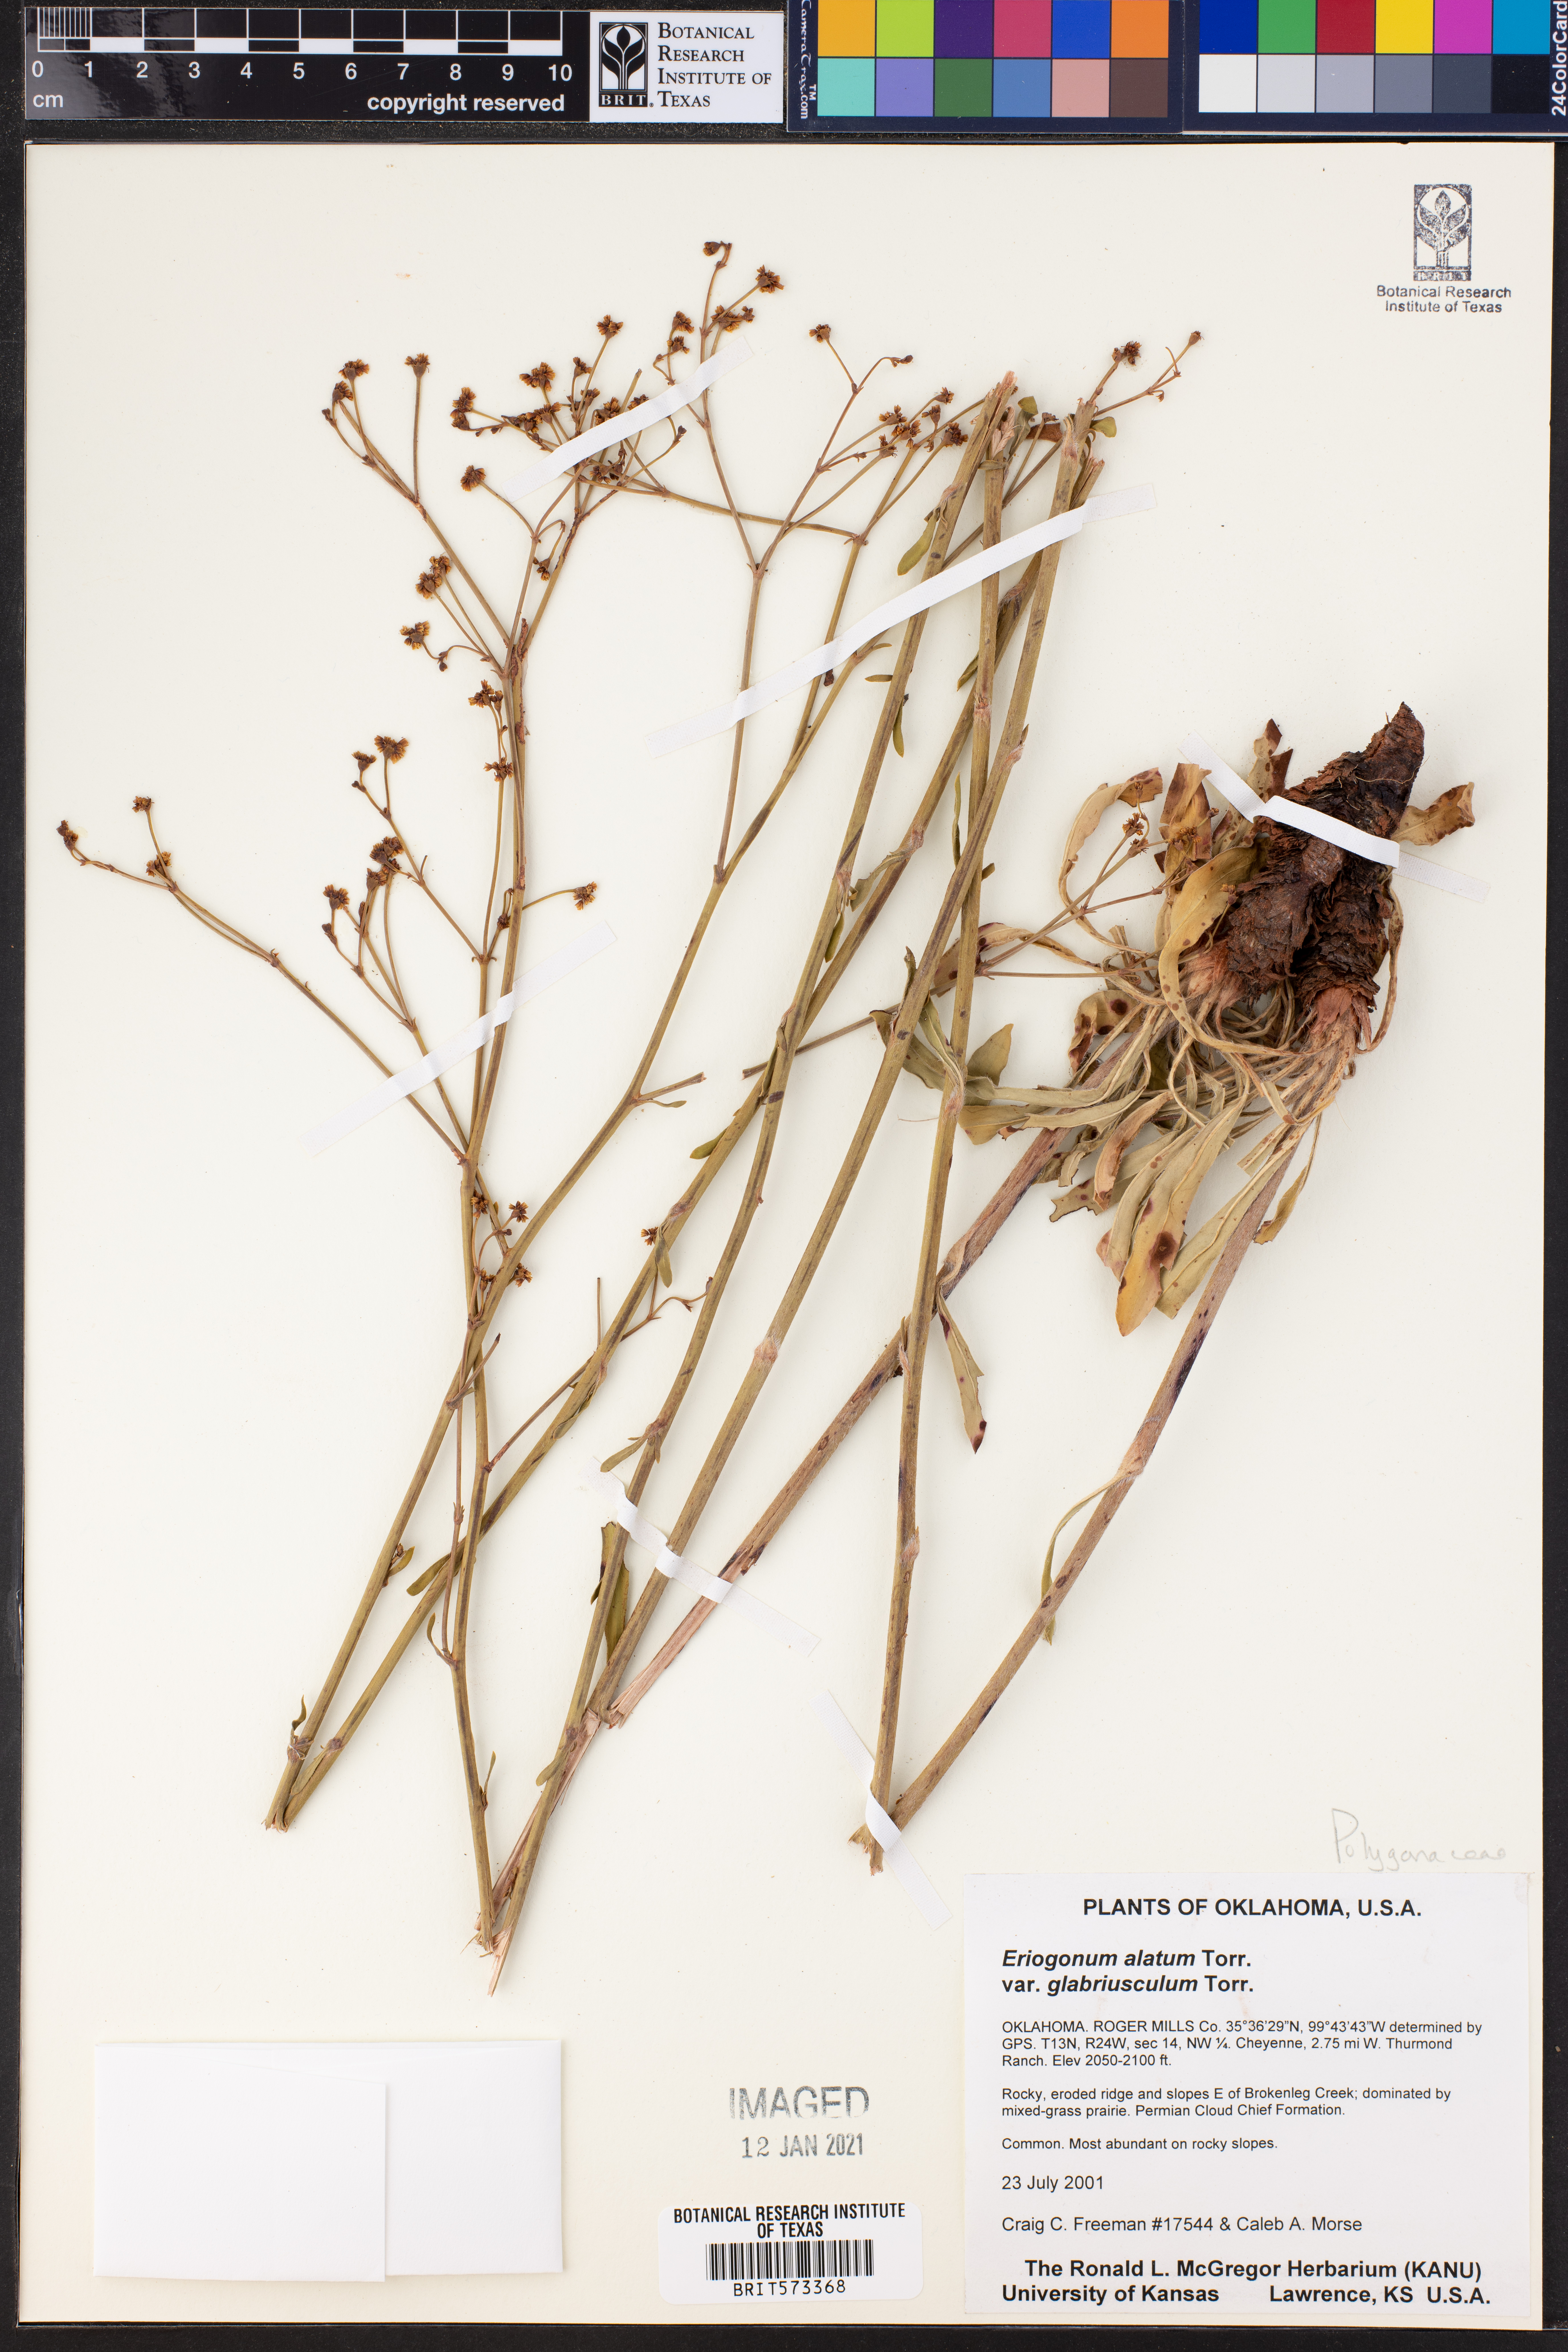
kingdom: Plantae
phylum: Tracheophyta
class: Magnoliopsida
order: Caryophyllales
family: Polygonaceae
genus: Eriogonum
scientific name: Eriogonum alatum
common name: Winged eriogonum
